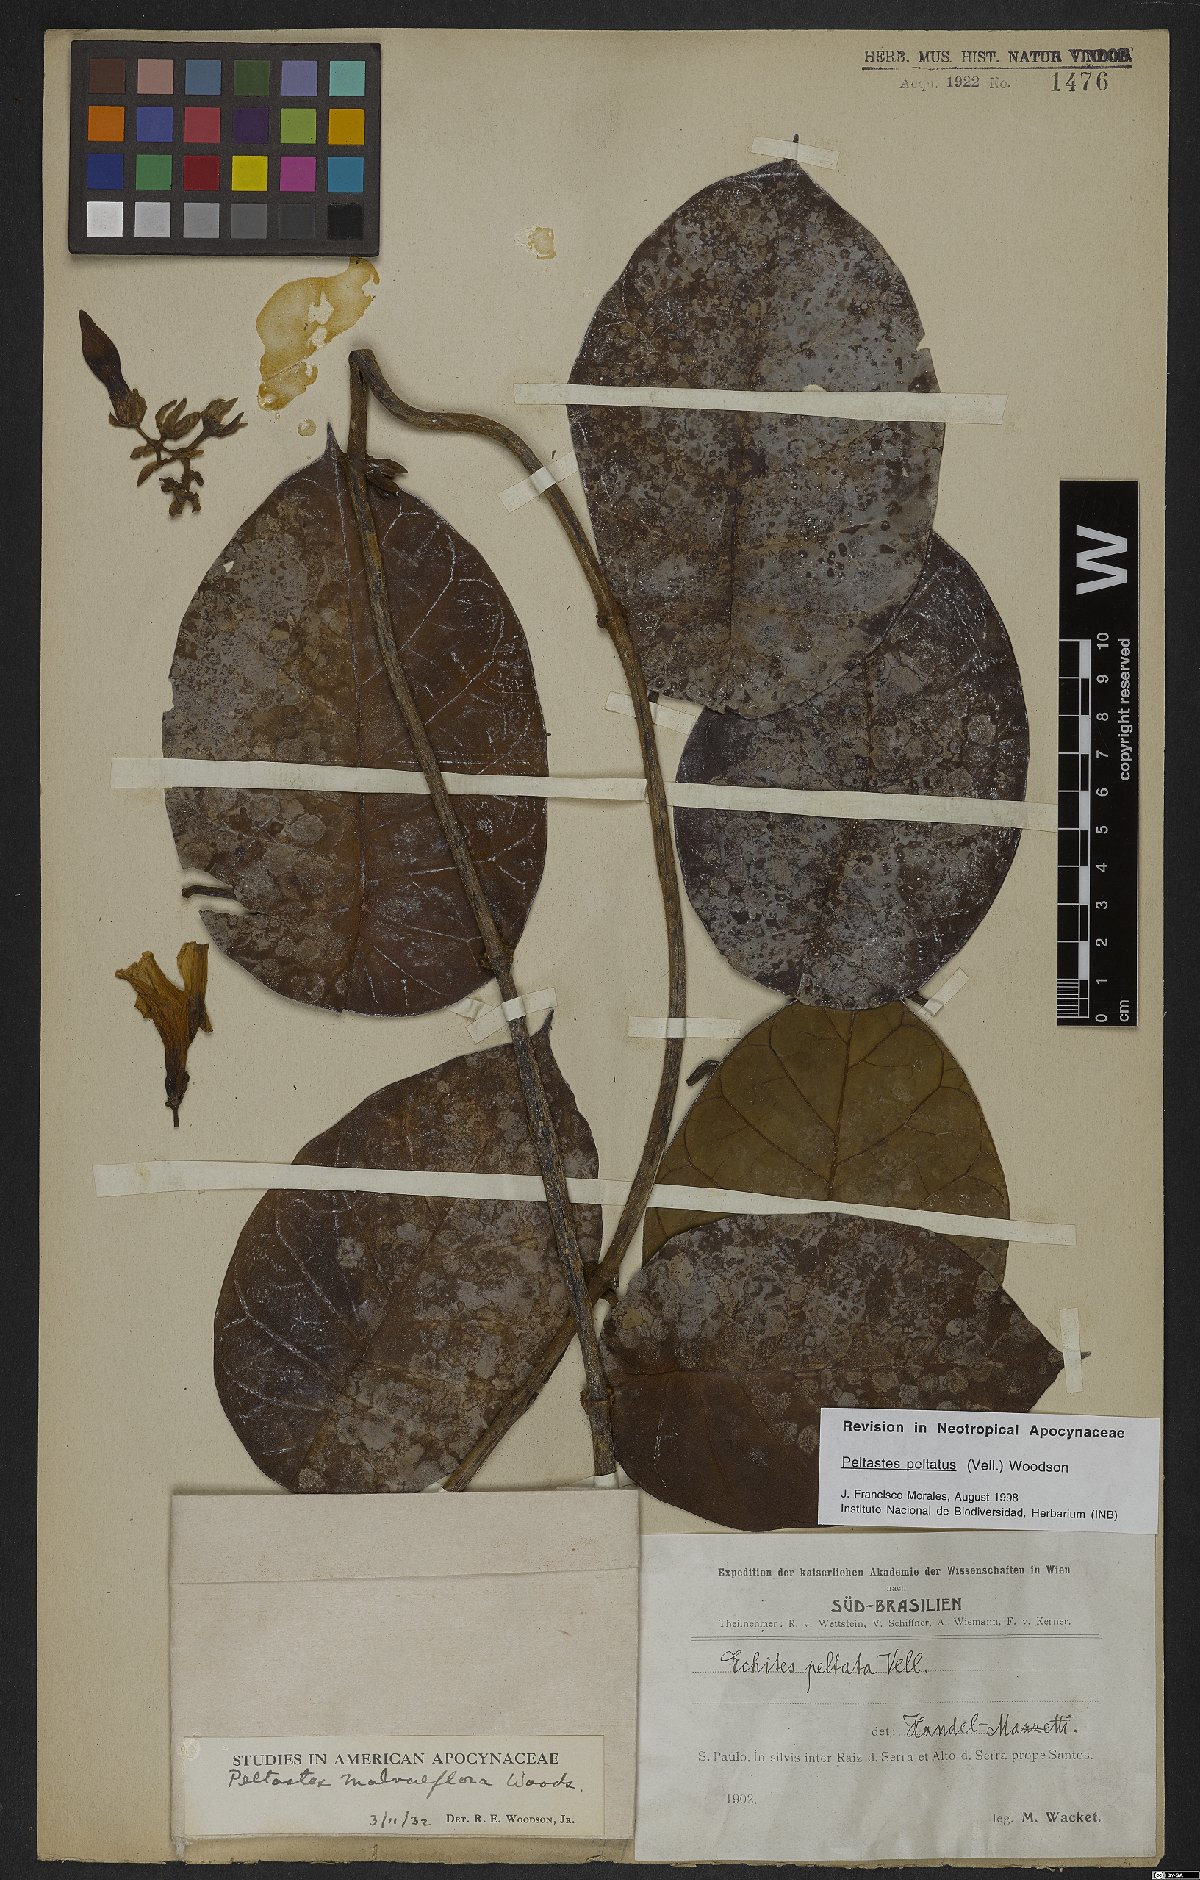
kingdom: Plantae
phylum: Tracheophyta
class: Magnoliopsida
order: Gentianales
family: Apocynaceae
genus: Macropharynx
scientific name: Macropharynx peltata
